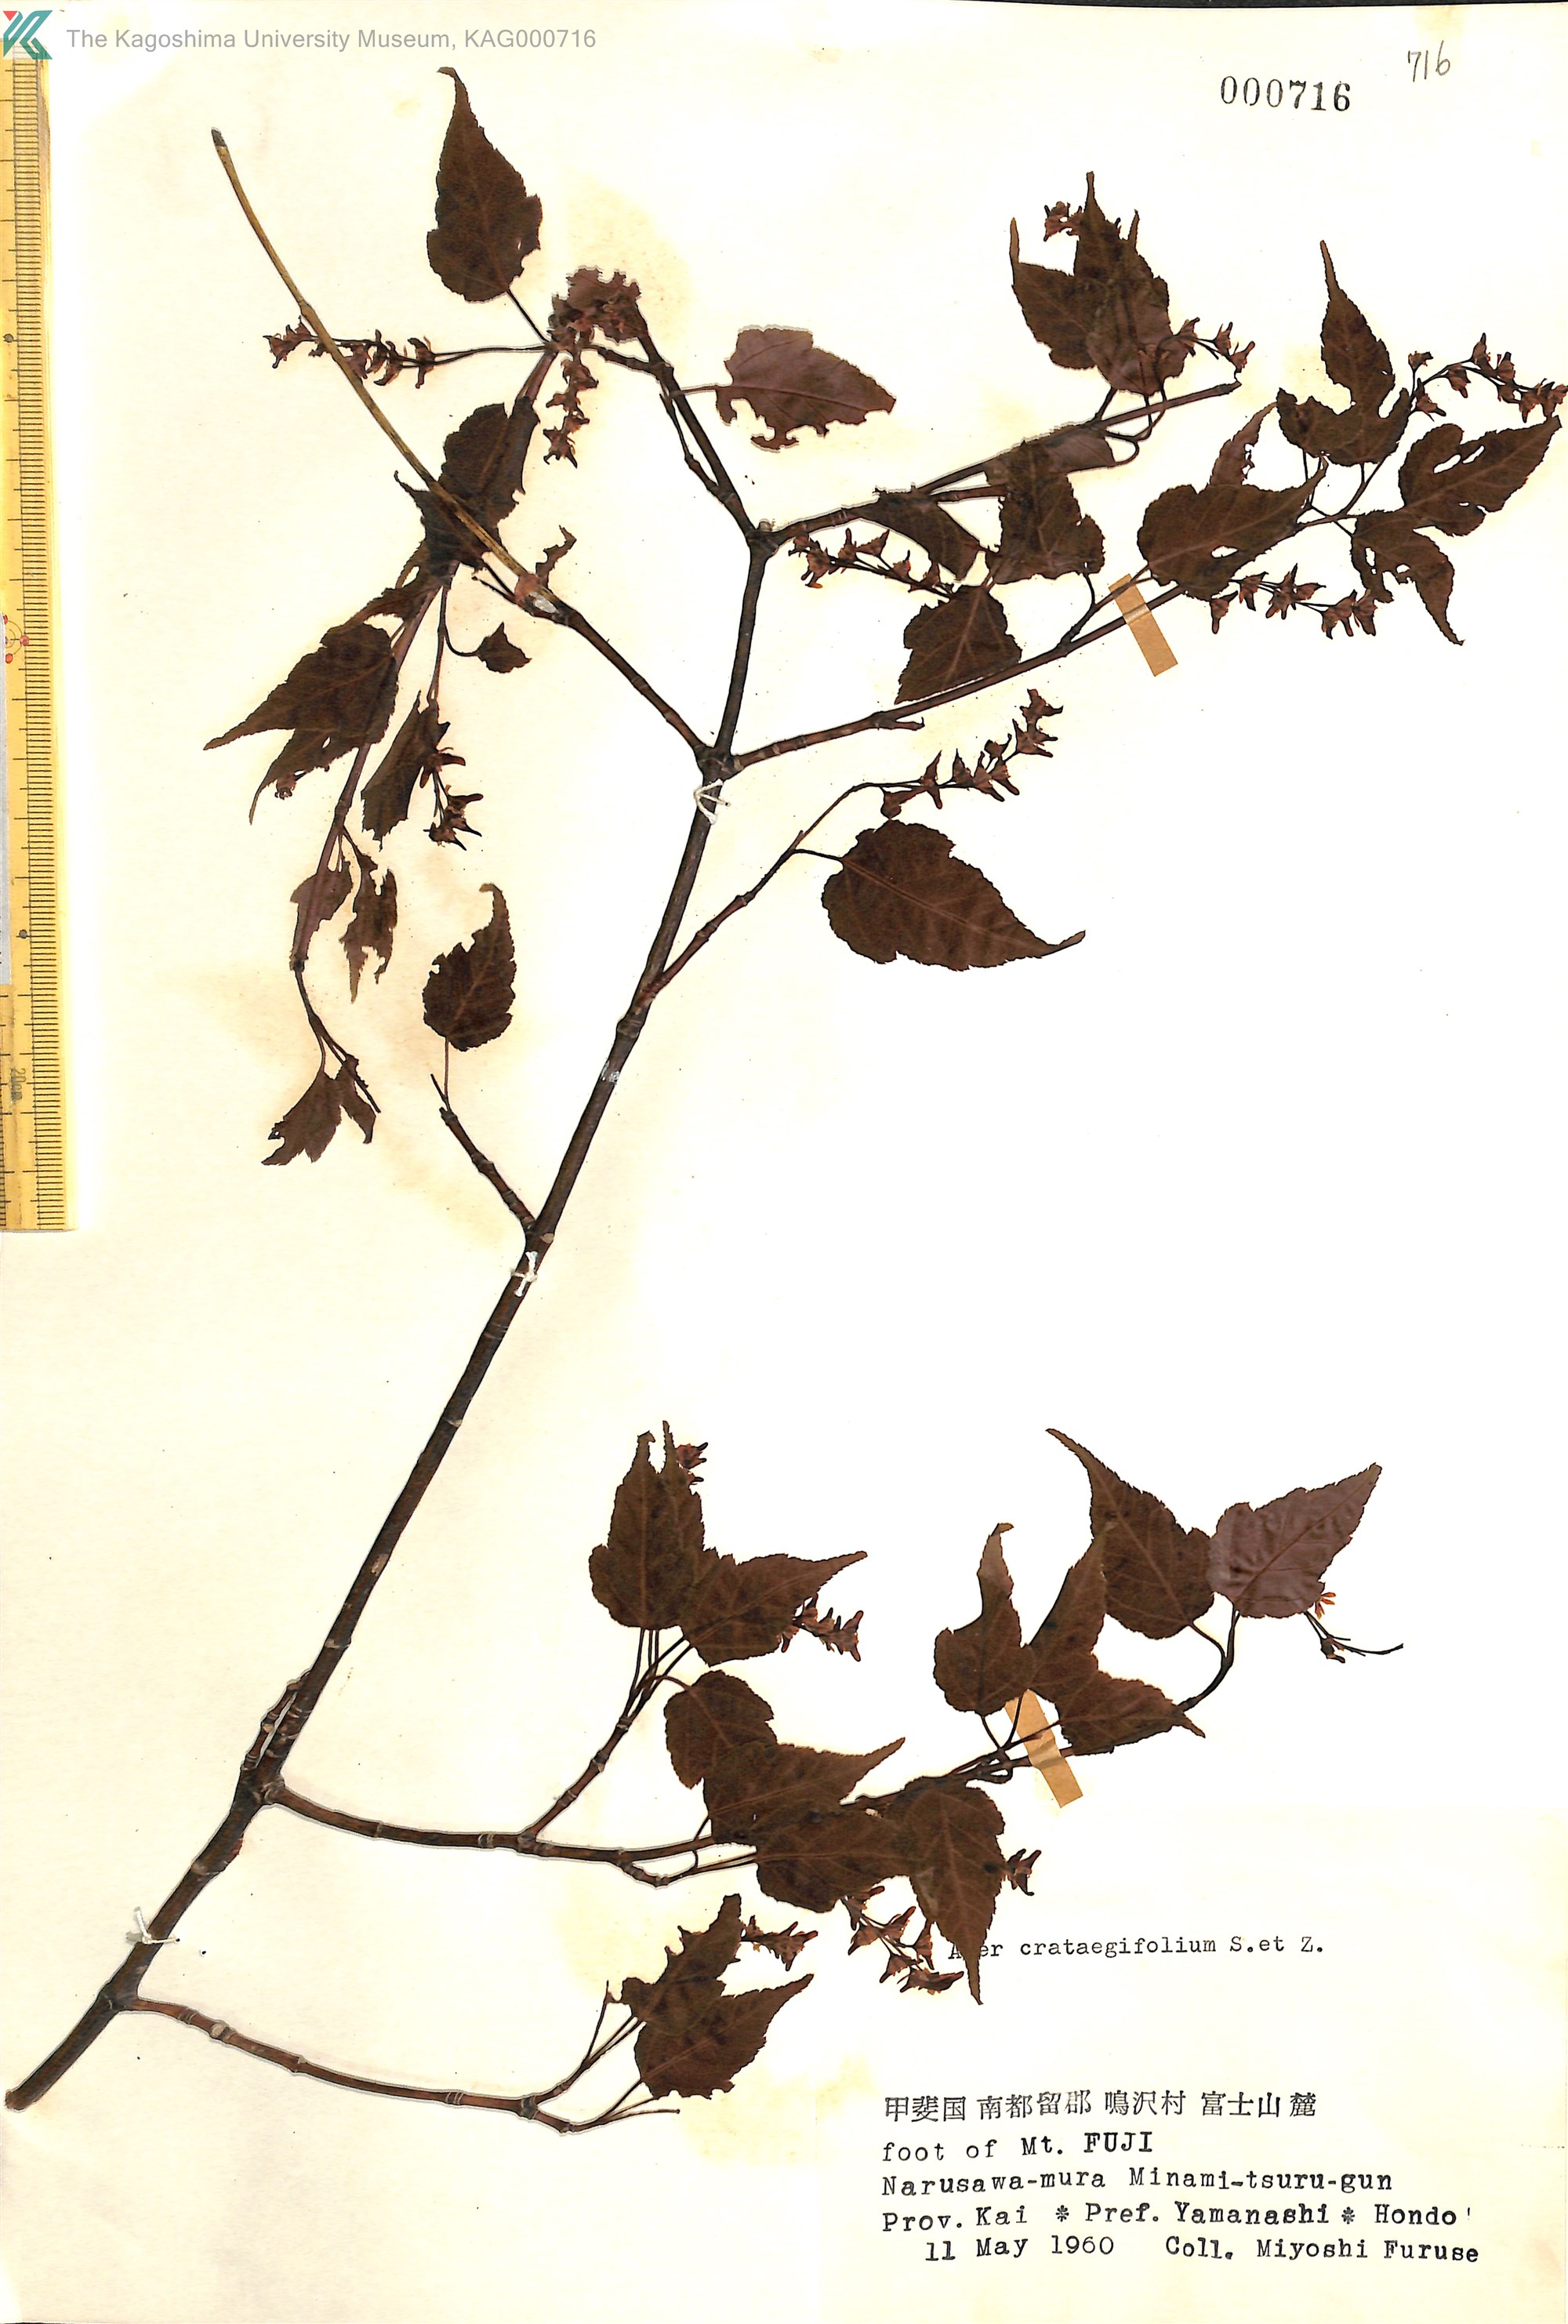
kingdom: Plantae
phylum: Tracheophyta
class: Magnoliopsida
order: Sapindales
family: Sapindaceae
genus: Acer
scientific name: Acer crataegifolium
